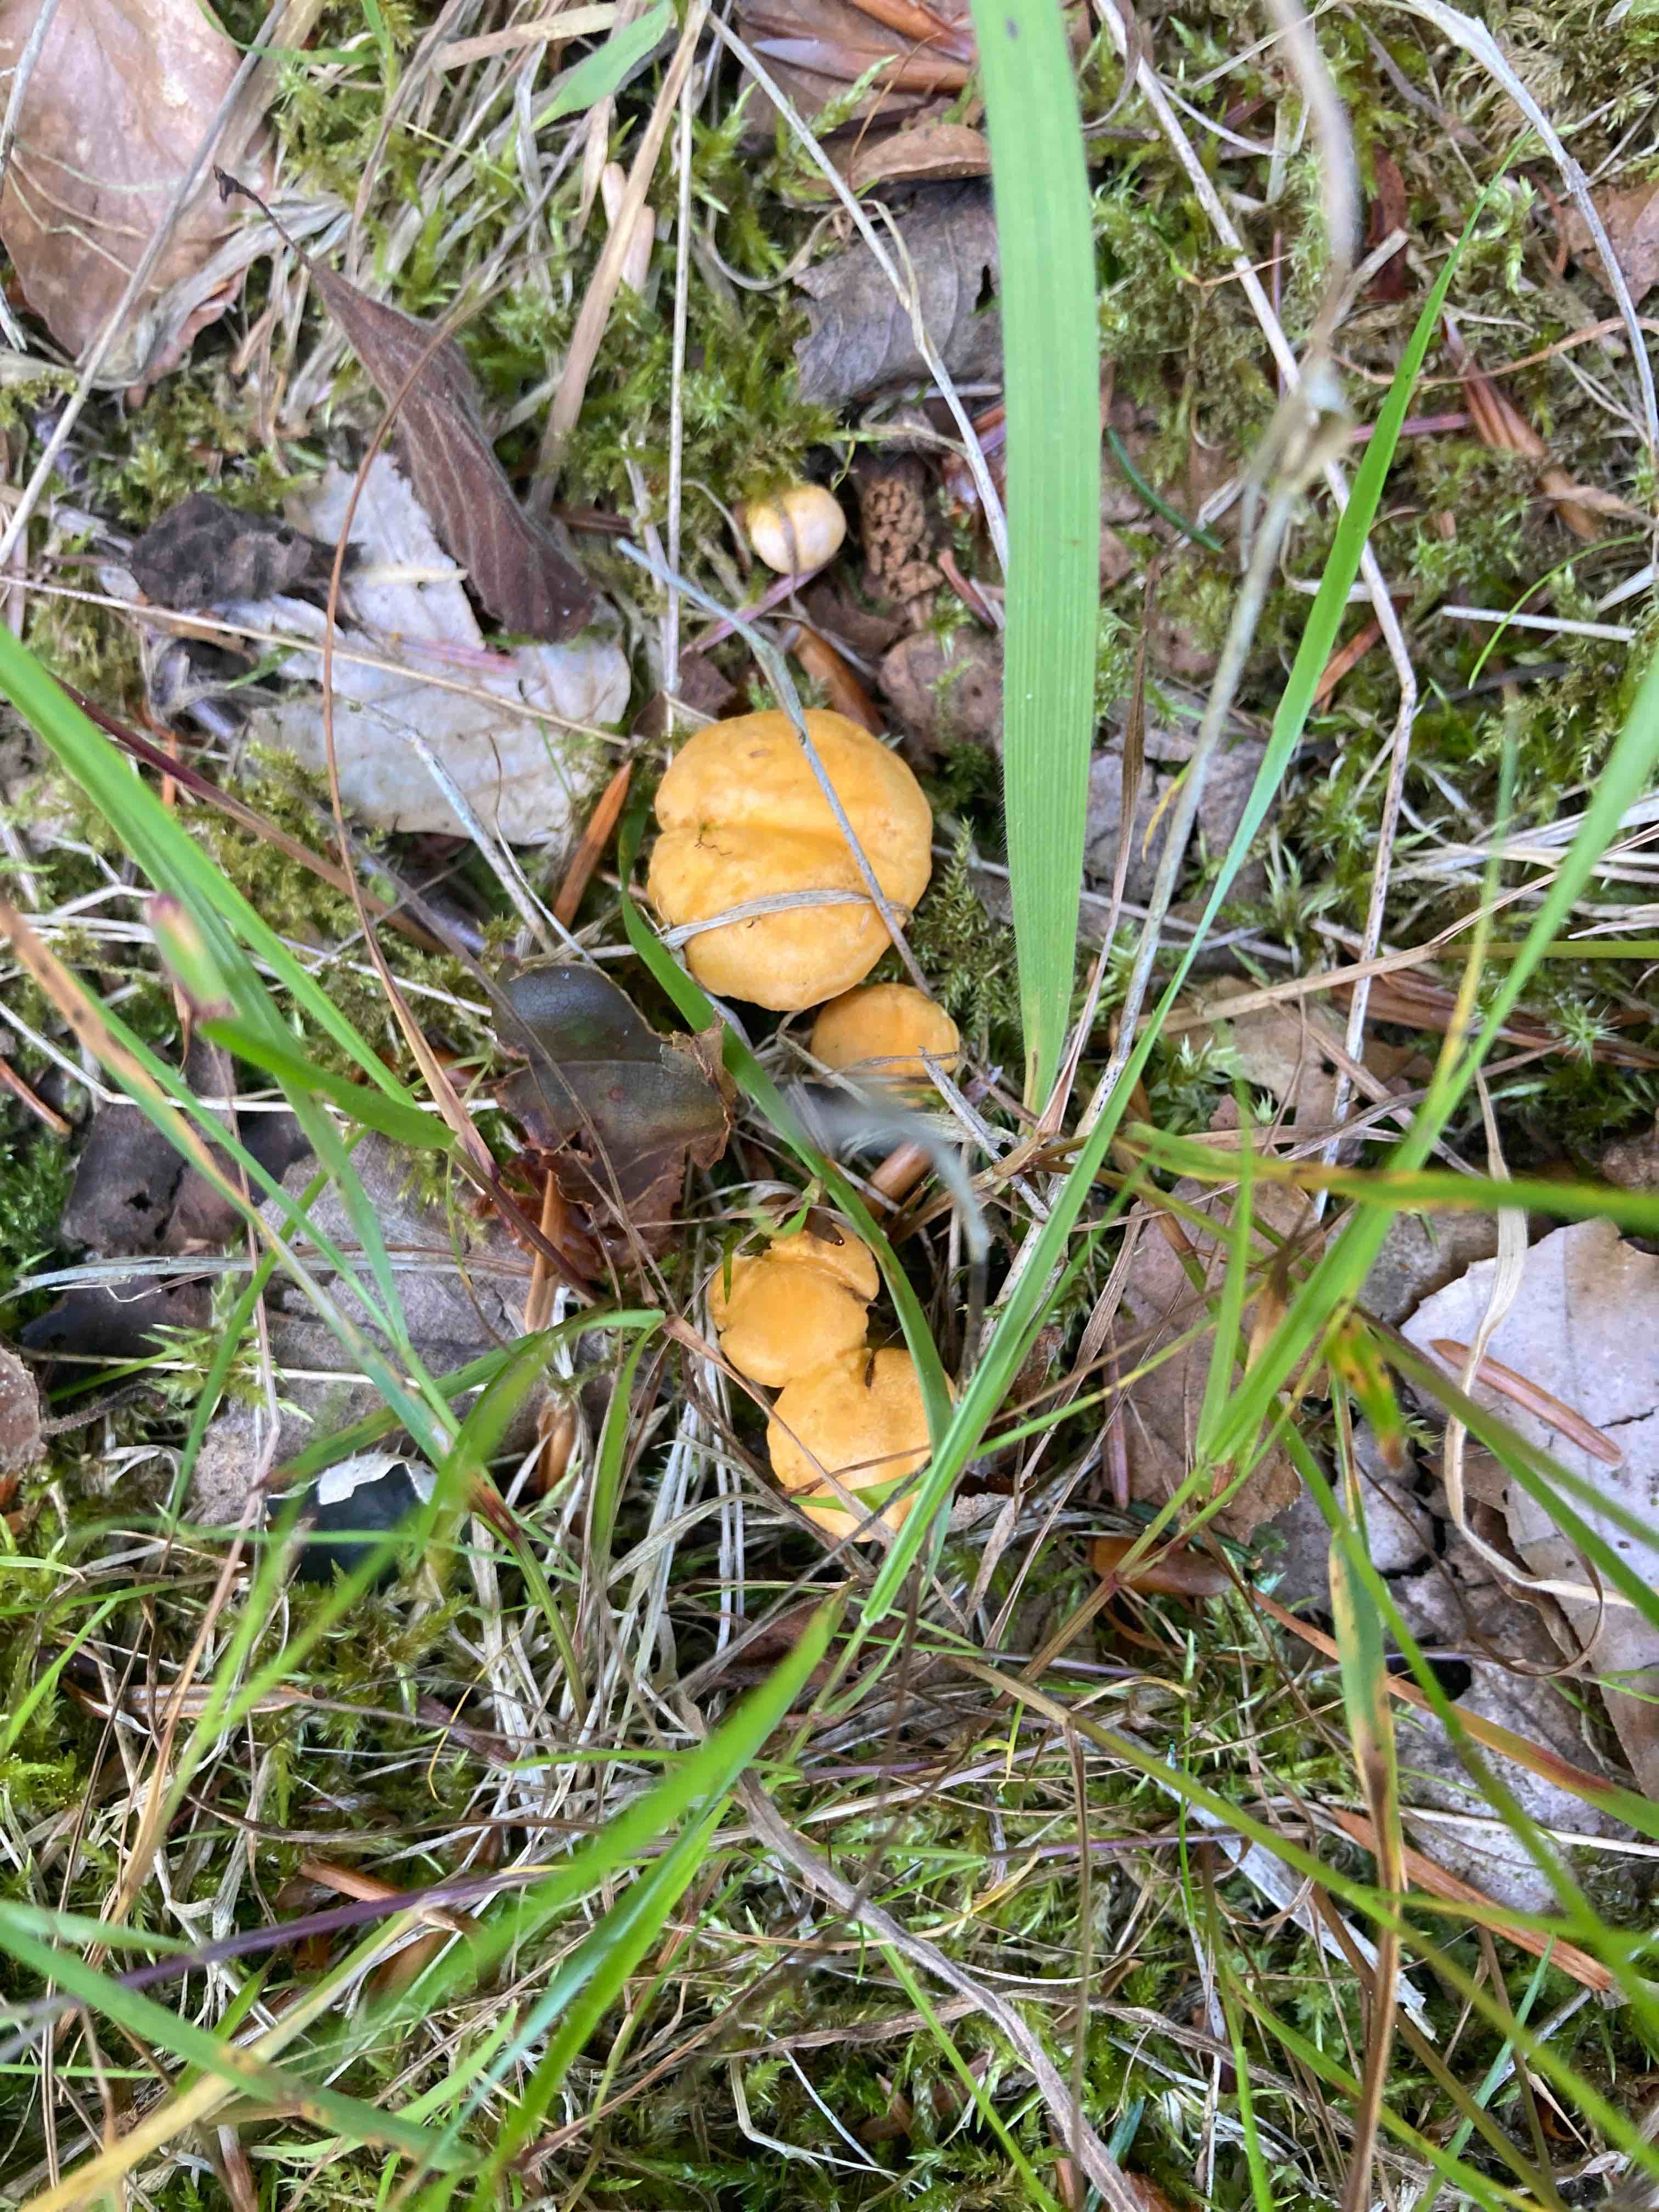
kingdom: Fungi
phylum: Basidiomycota
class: Agaricomycetes
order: Cantharellales
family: Hydnaceae
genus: Cantharellus
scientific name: Cantharellus cibarius
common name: almindelig kantarel
